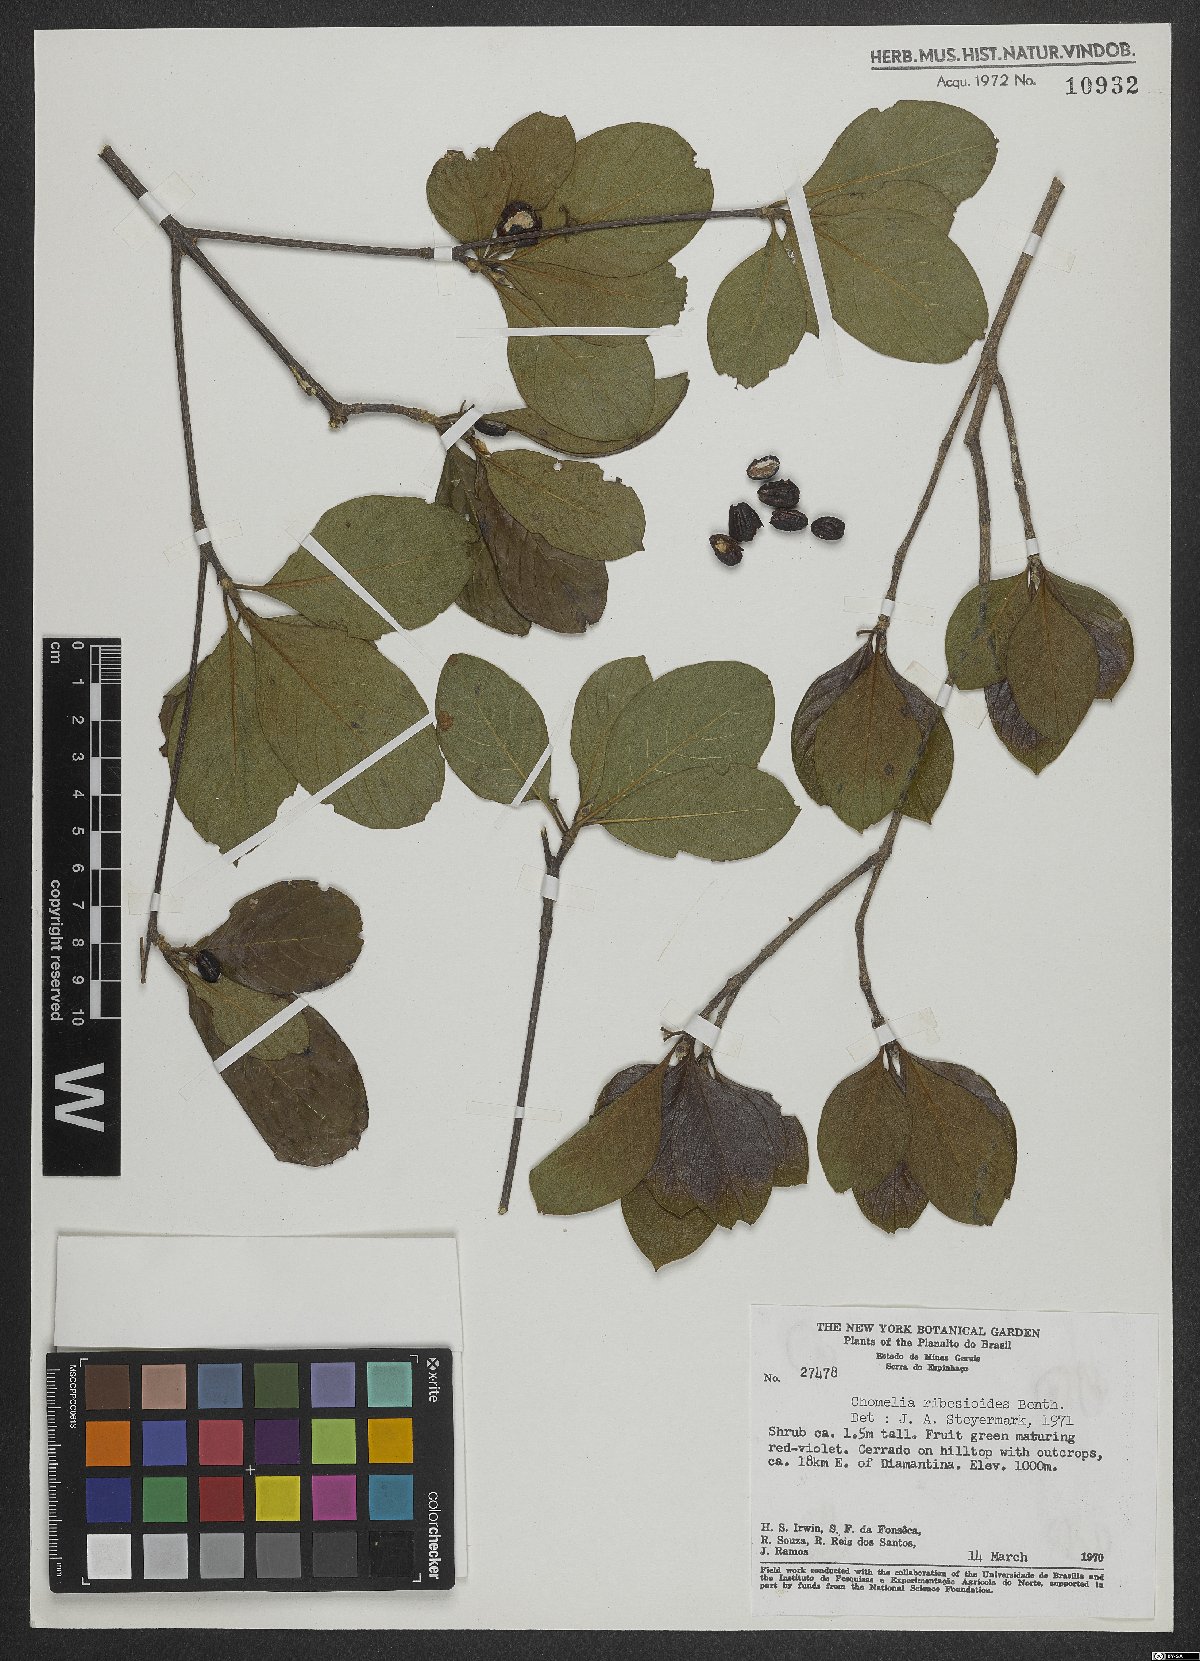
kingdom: Plantae
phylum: Tracheophyta
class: Magnoliopsida
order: Gentianales
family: Rubiaceae
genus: Chomelia
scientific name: Chomelia ribesioides
